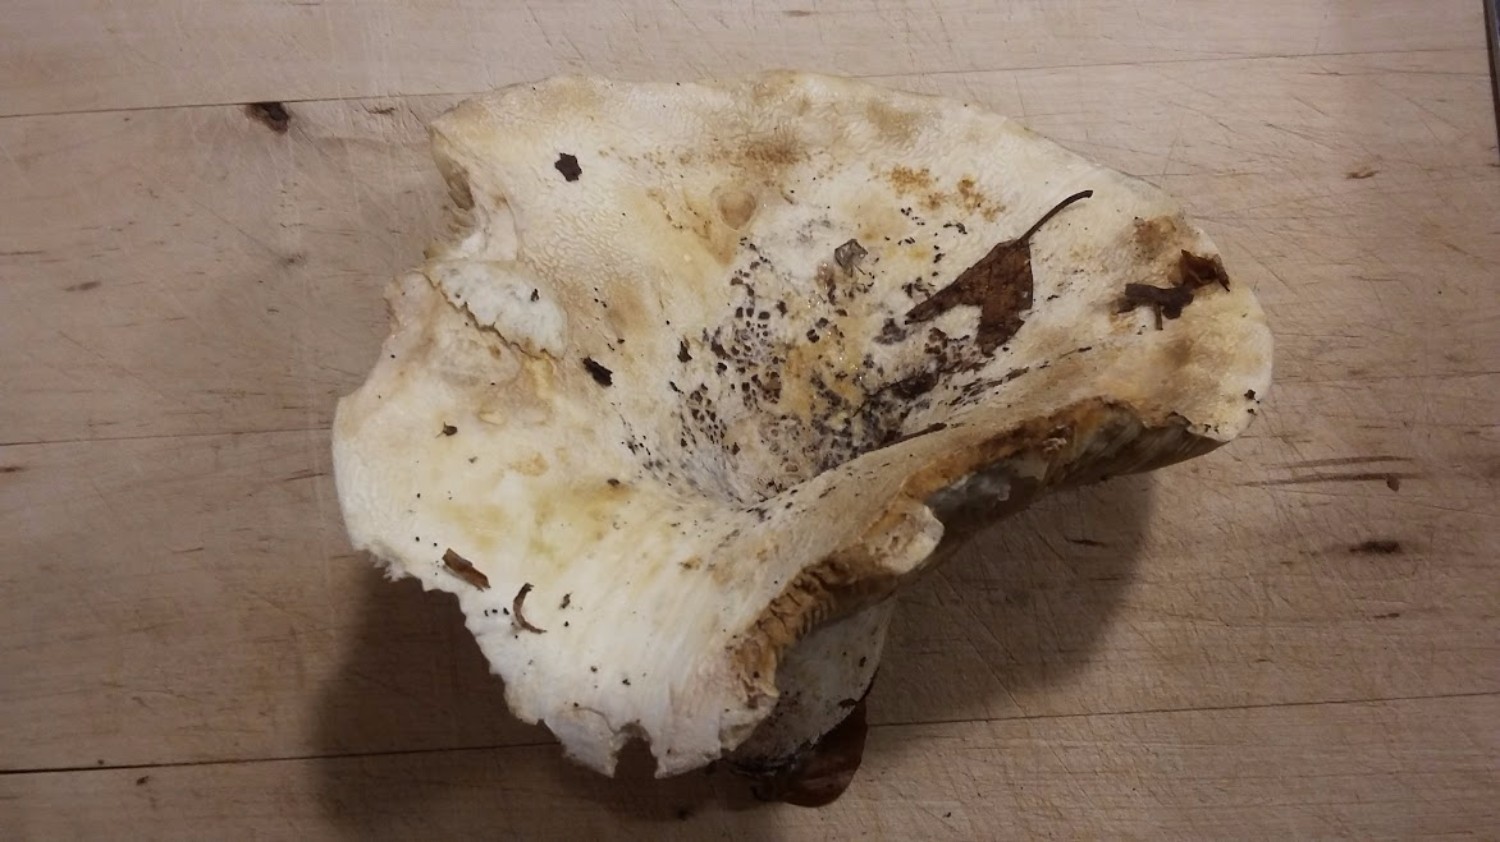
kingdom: Fungi
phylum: Basidiomycota
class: Agaricomycetes
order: Russulales
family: Russulaceae
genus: Lactifluus
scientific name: Lactifluus vellereus
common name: hvidfiltet mælkehat
